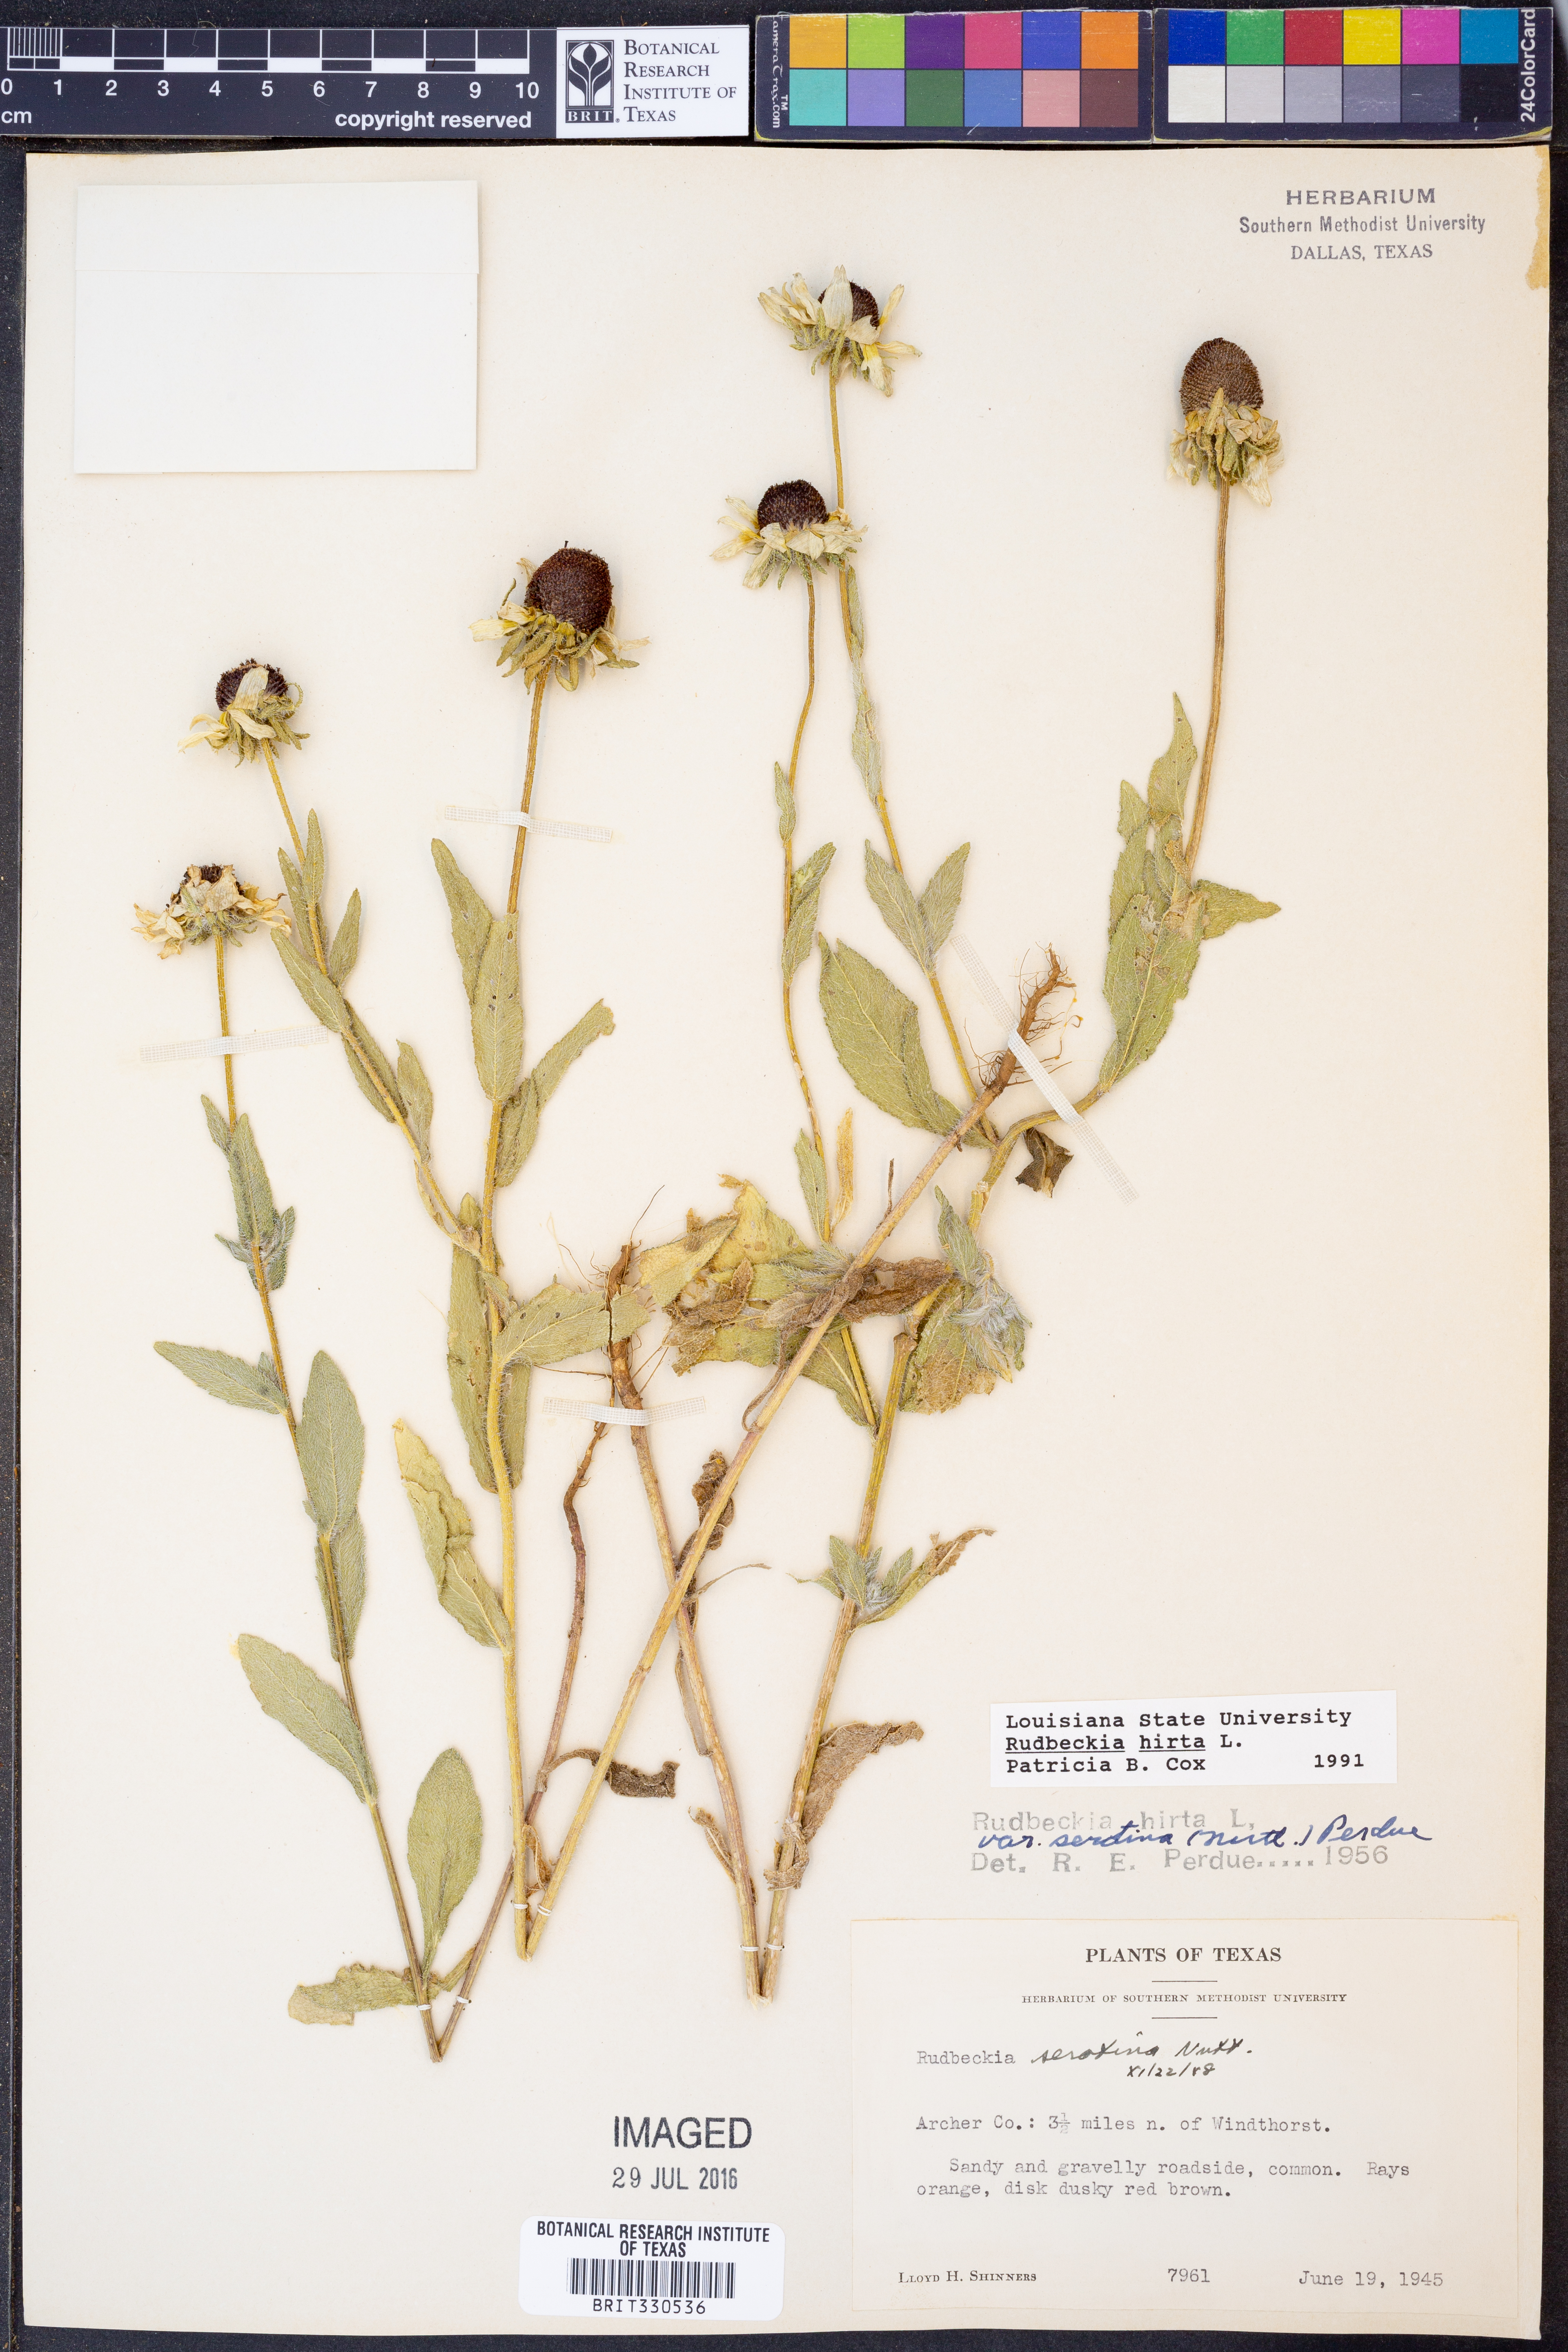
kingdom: Plantae
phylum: Tracheophyta
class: Magnoliopsida
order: Asterales
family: Asteraceae
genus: Rudbeckia
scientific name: Rudbeckia hirta
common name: Black-eyed-susan
